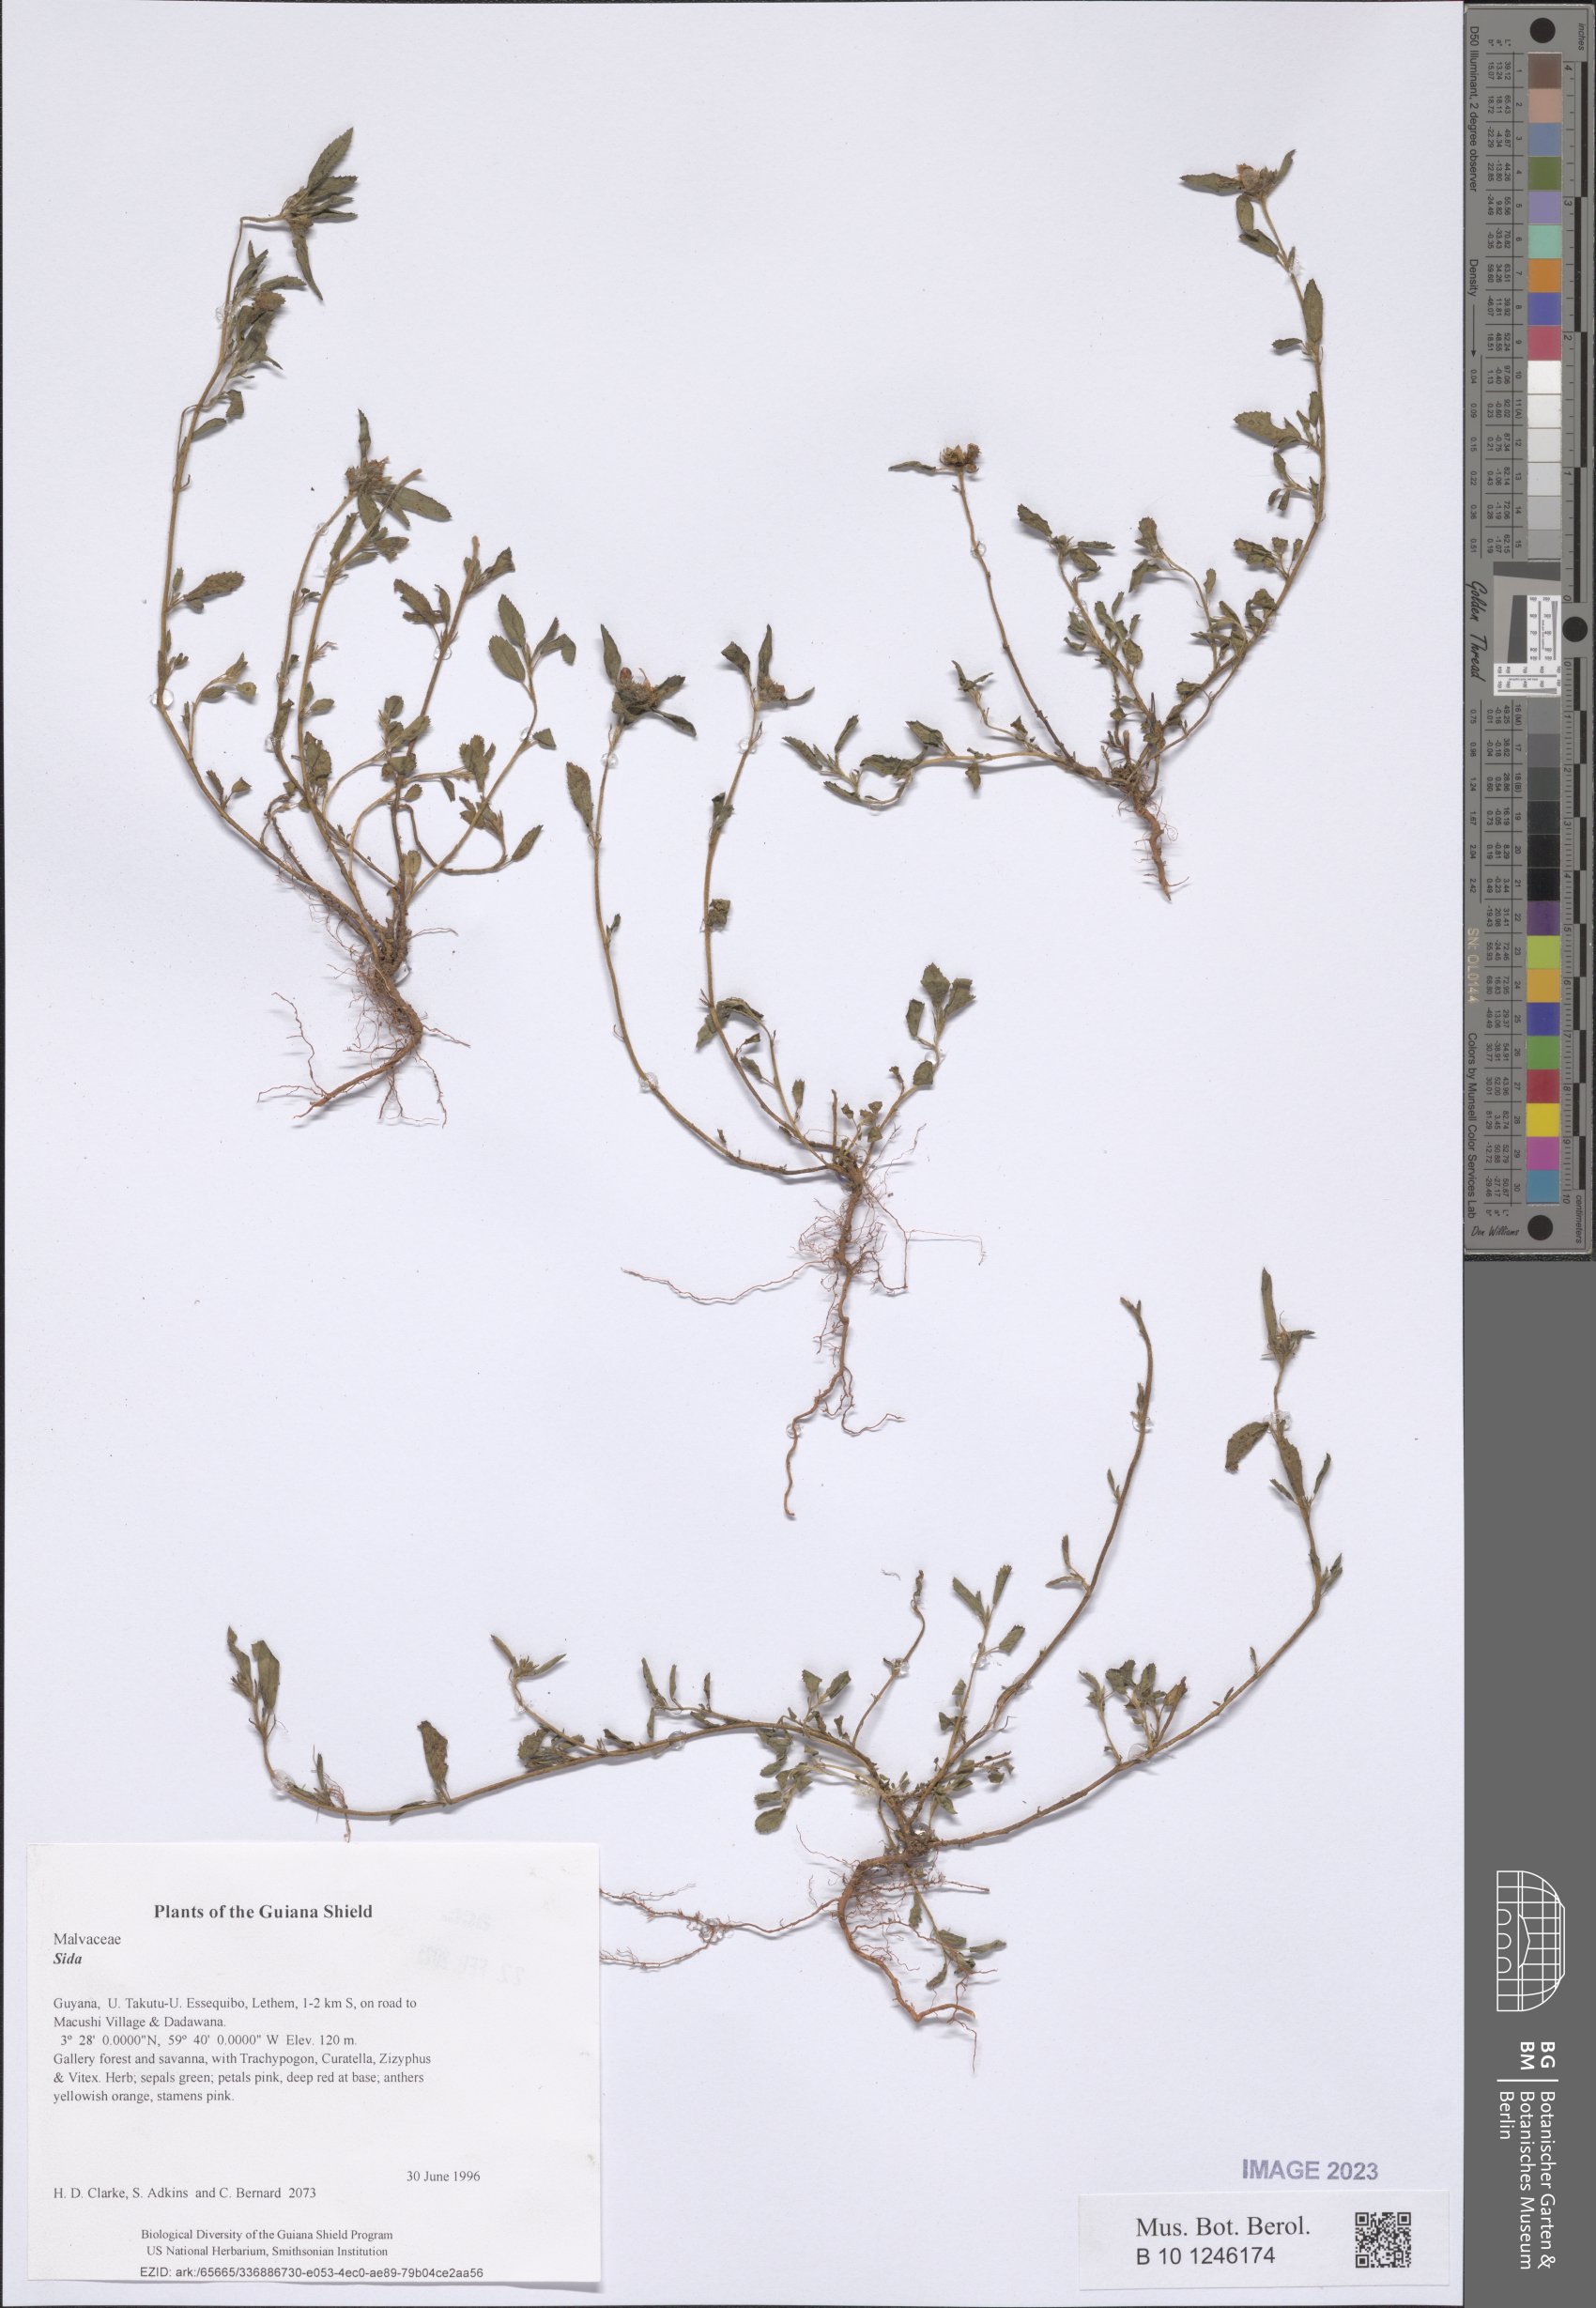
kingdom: Plantae
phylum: Tracheophyta
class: Magnoliopsida
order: Malvales
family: Malvaceae
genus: Sida
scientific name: Sida
